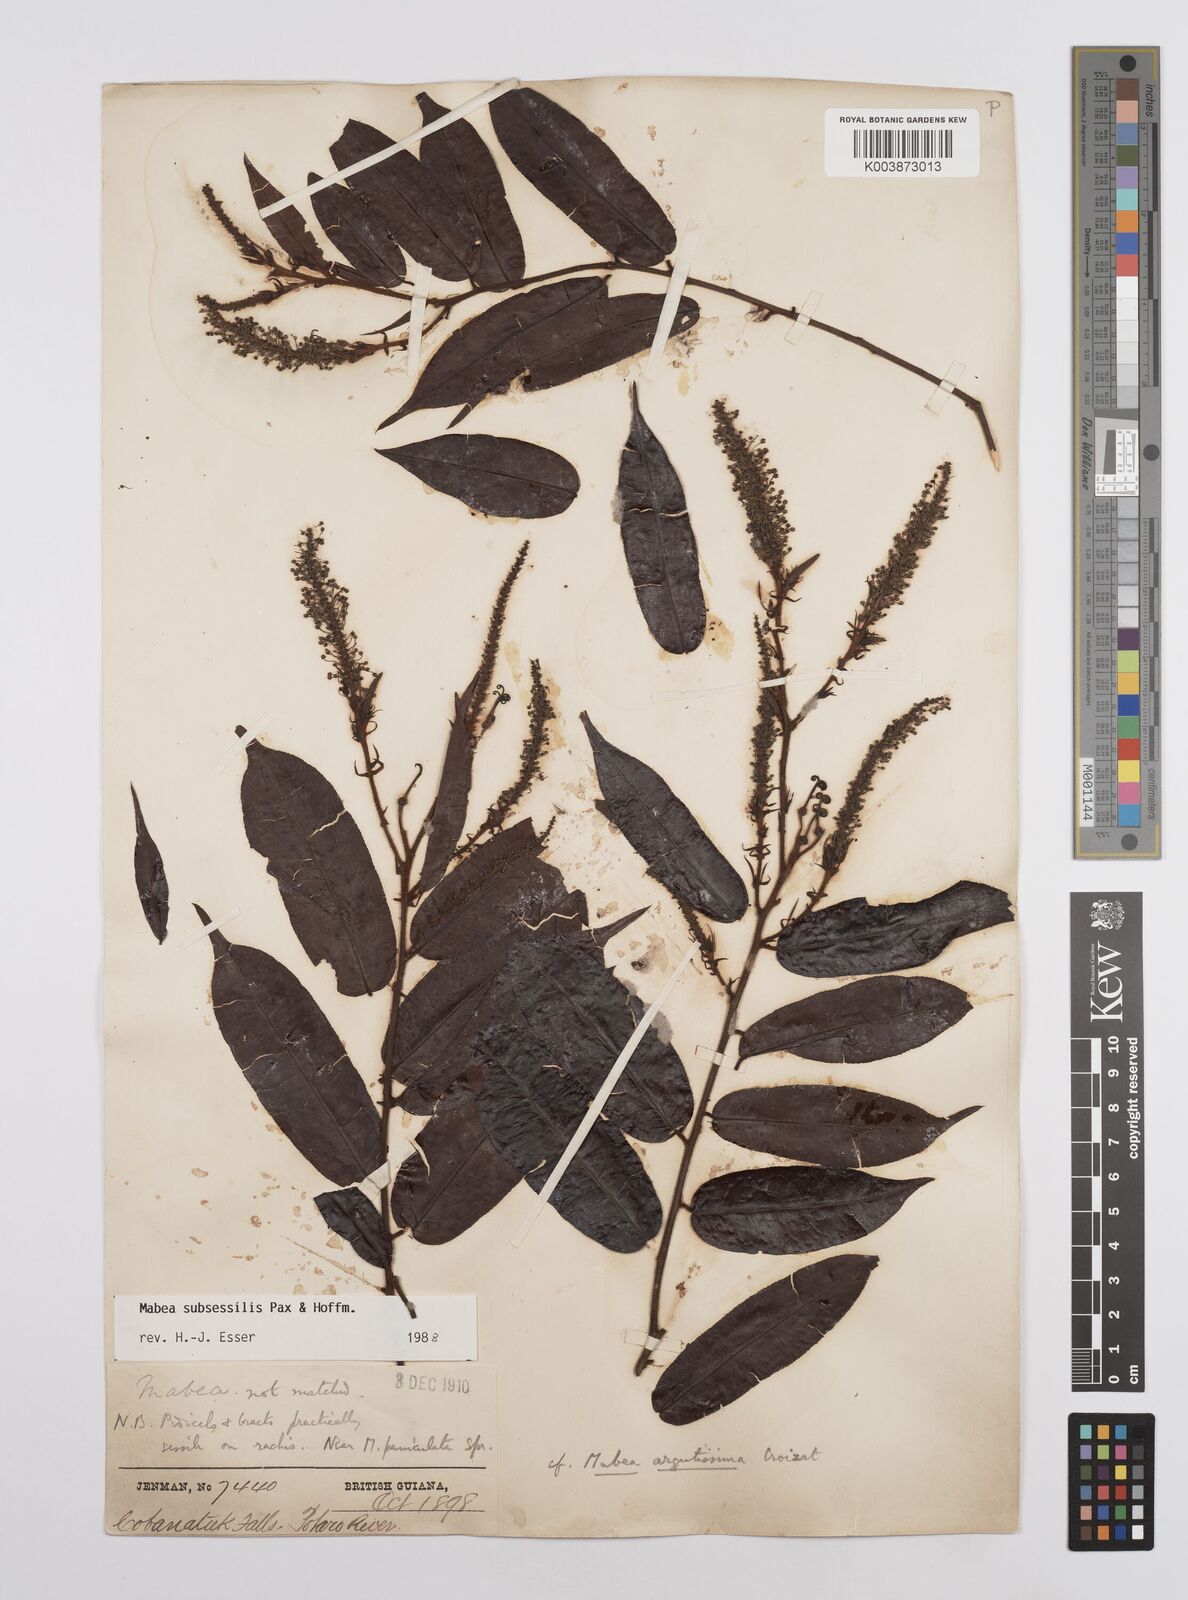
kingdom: Plantae
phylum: Tracheophyta
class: Magnoliopsida
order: Malpighiales
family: Euphorbiaceae
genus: Mabea
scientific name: Mabea subsessilis
